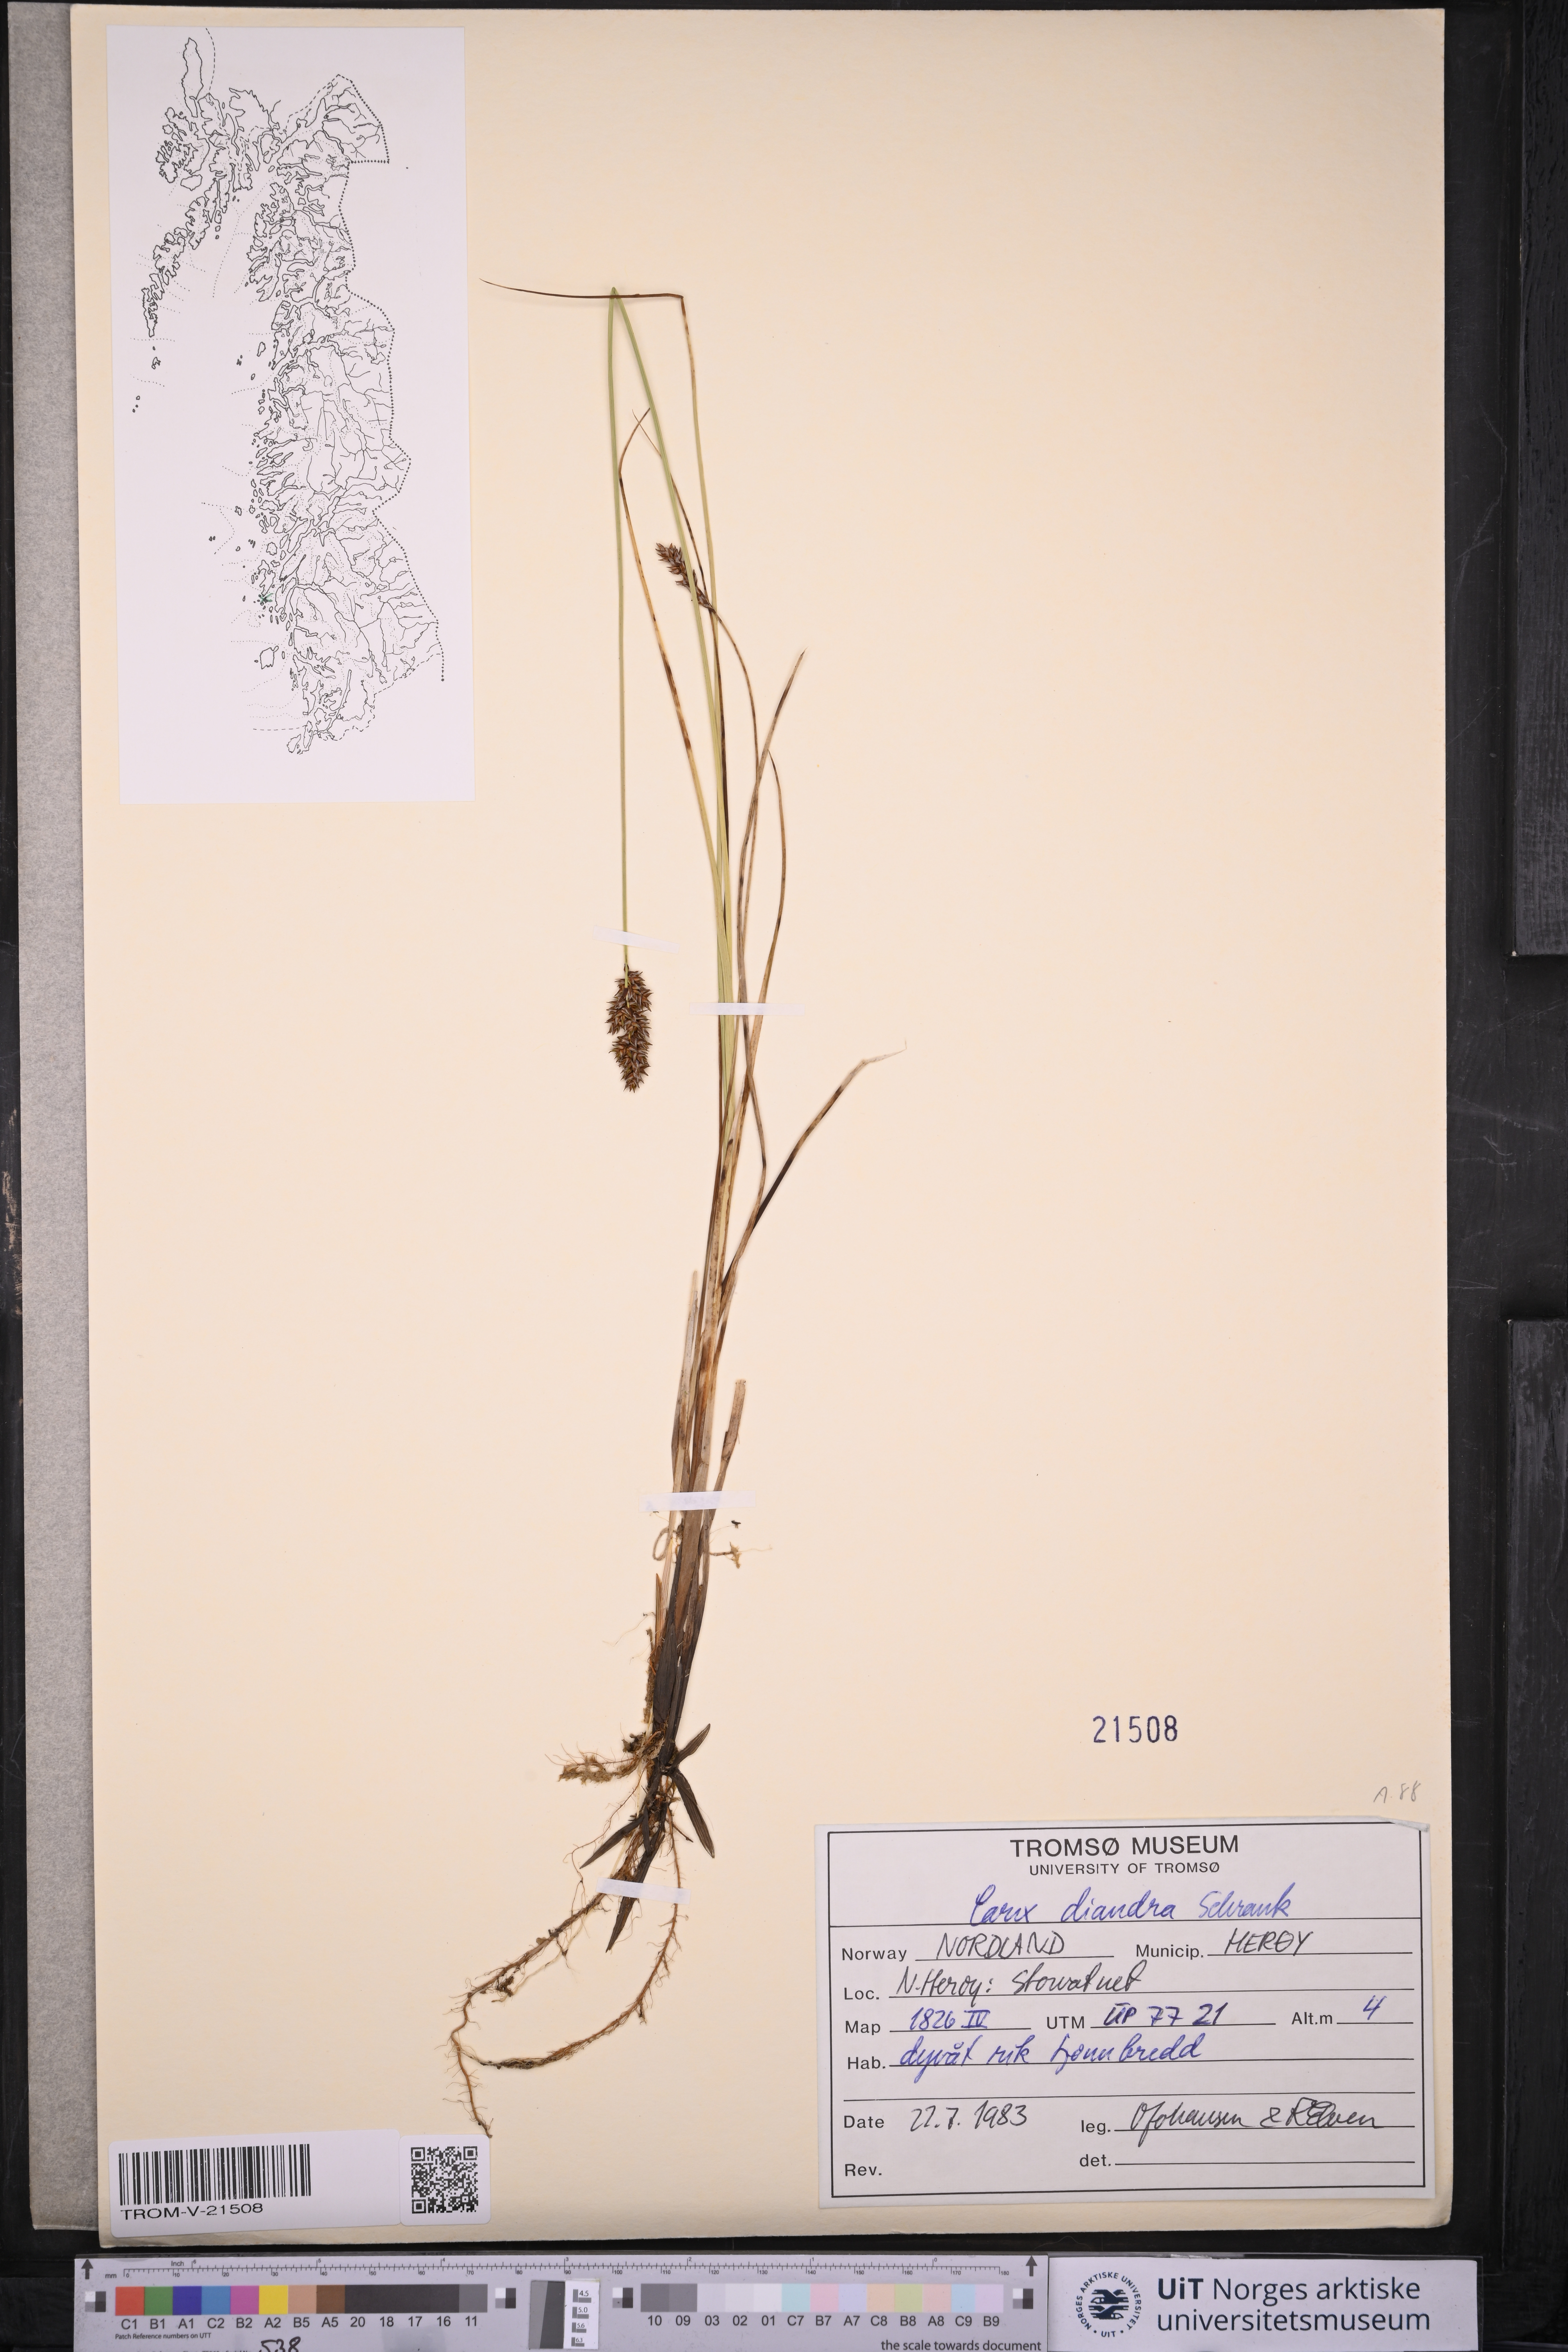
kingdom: Plantae
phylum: Tracheophyta
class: Liliopsida
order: Poales
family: Cyperaceae
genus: Carex
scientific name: Carex diandra
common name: Lesser tussock-sedge
